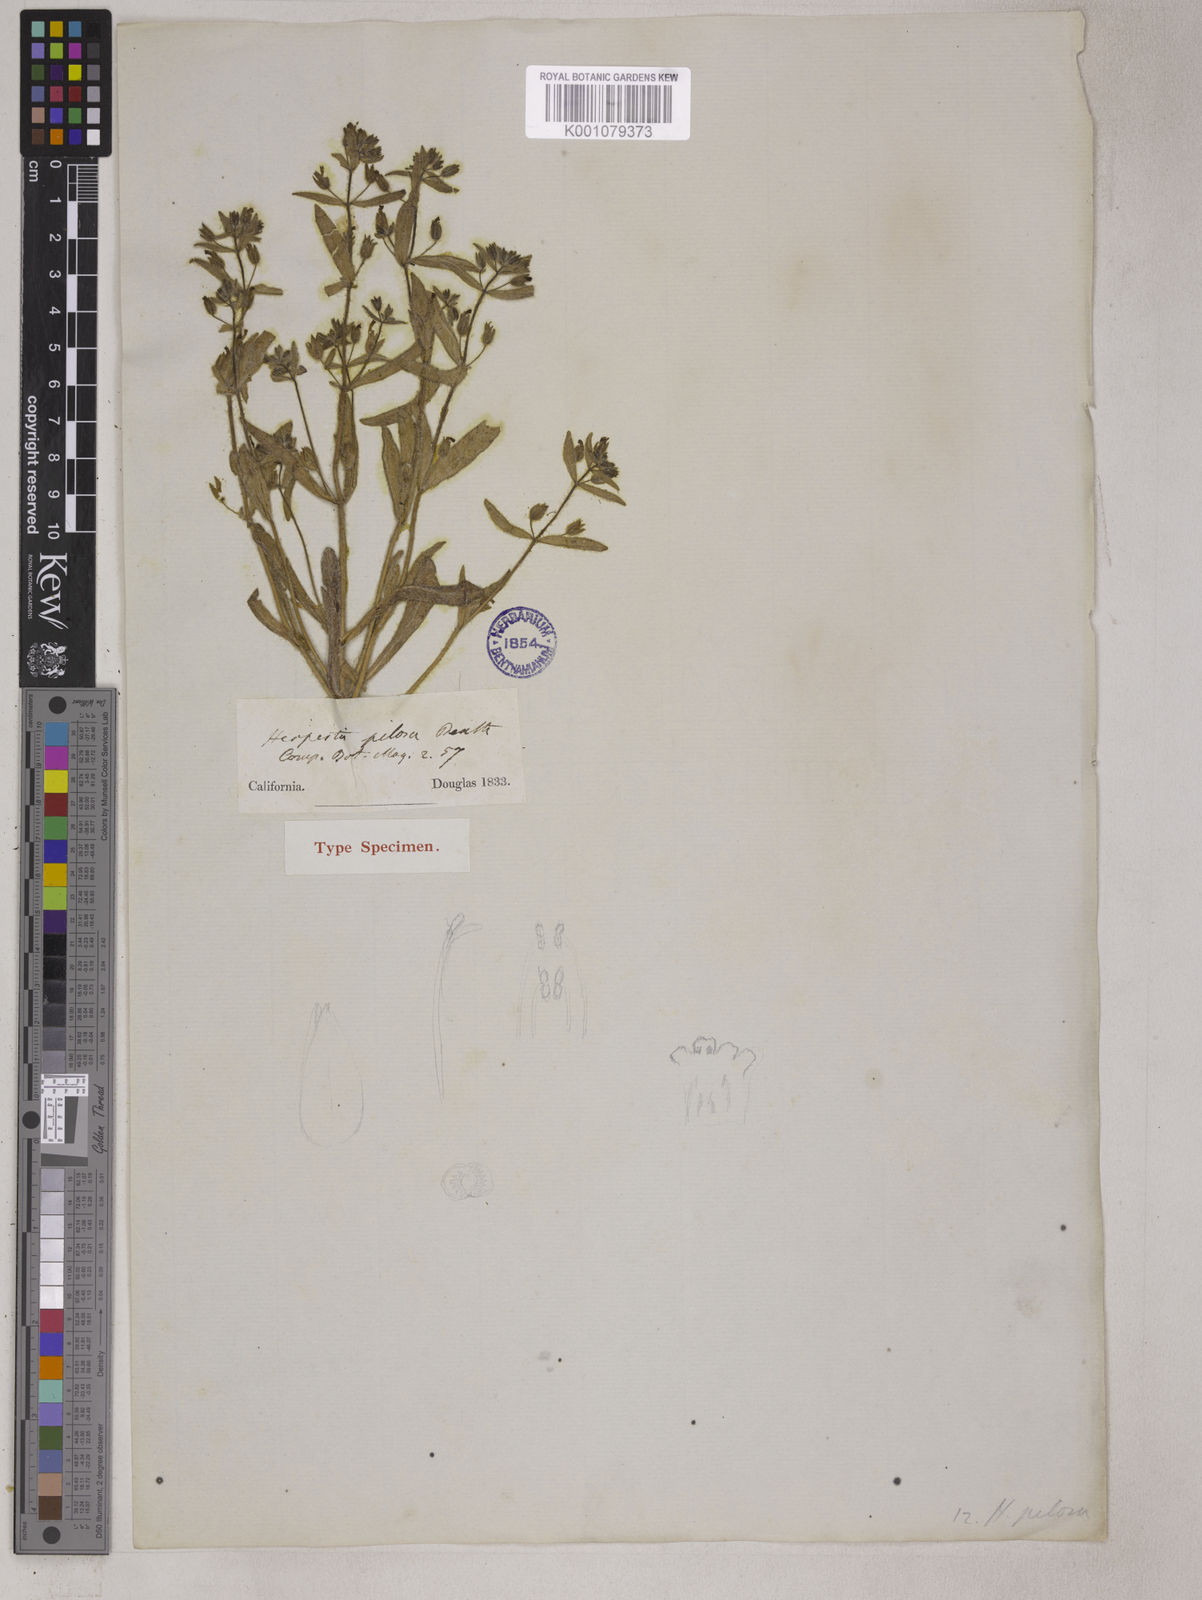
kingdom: Plantae
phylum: Tracheophyta
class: Magnoliopsida
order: Lamiales
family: Phrymaceae
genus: Mimetanthe
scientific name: Mimetanthe pilosa
